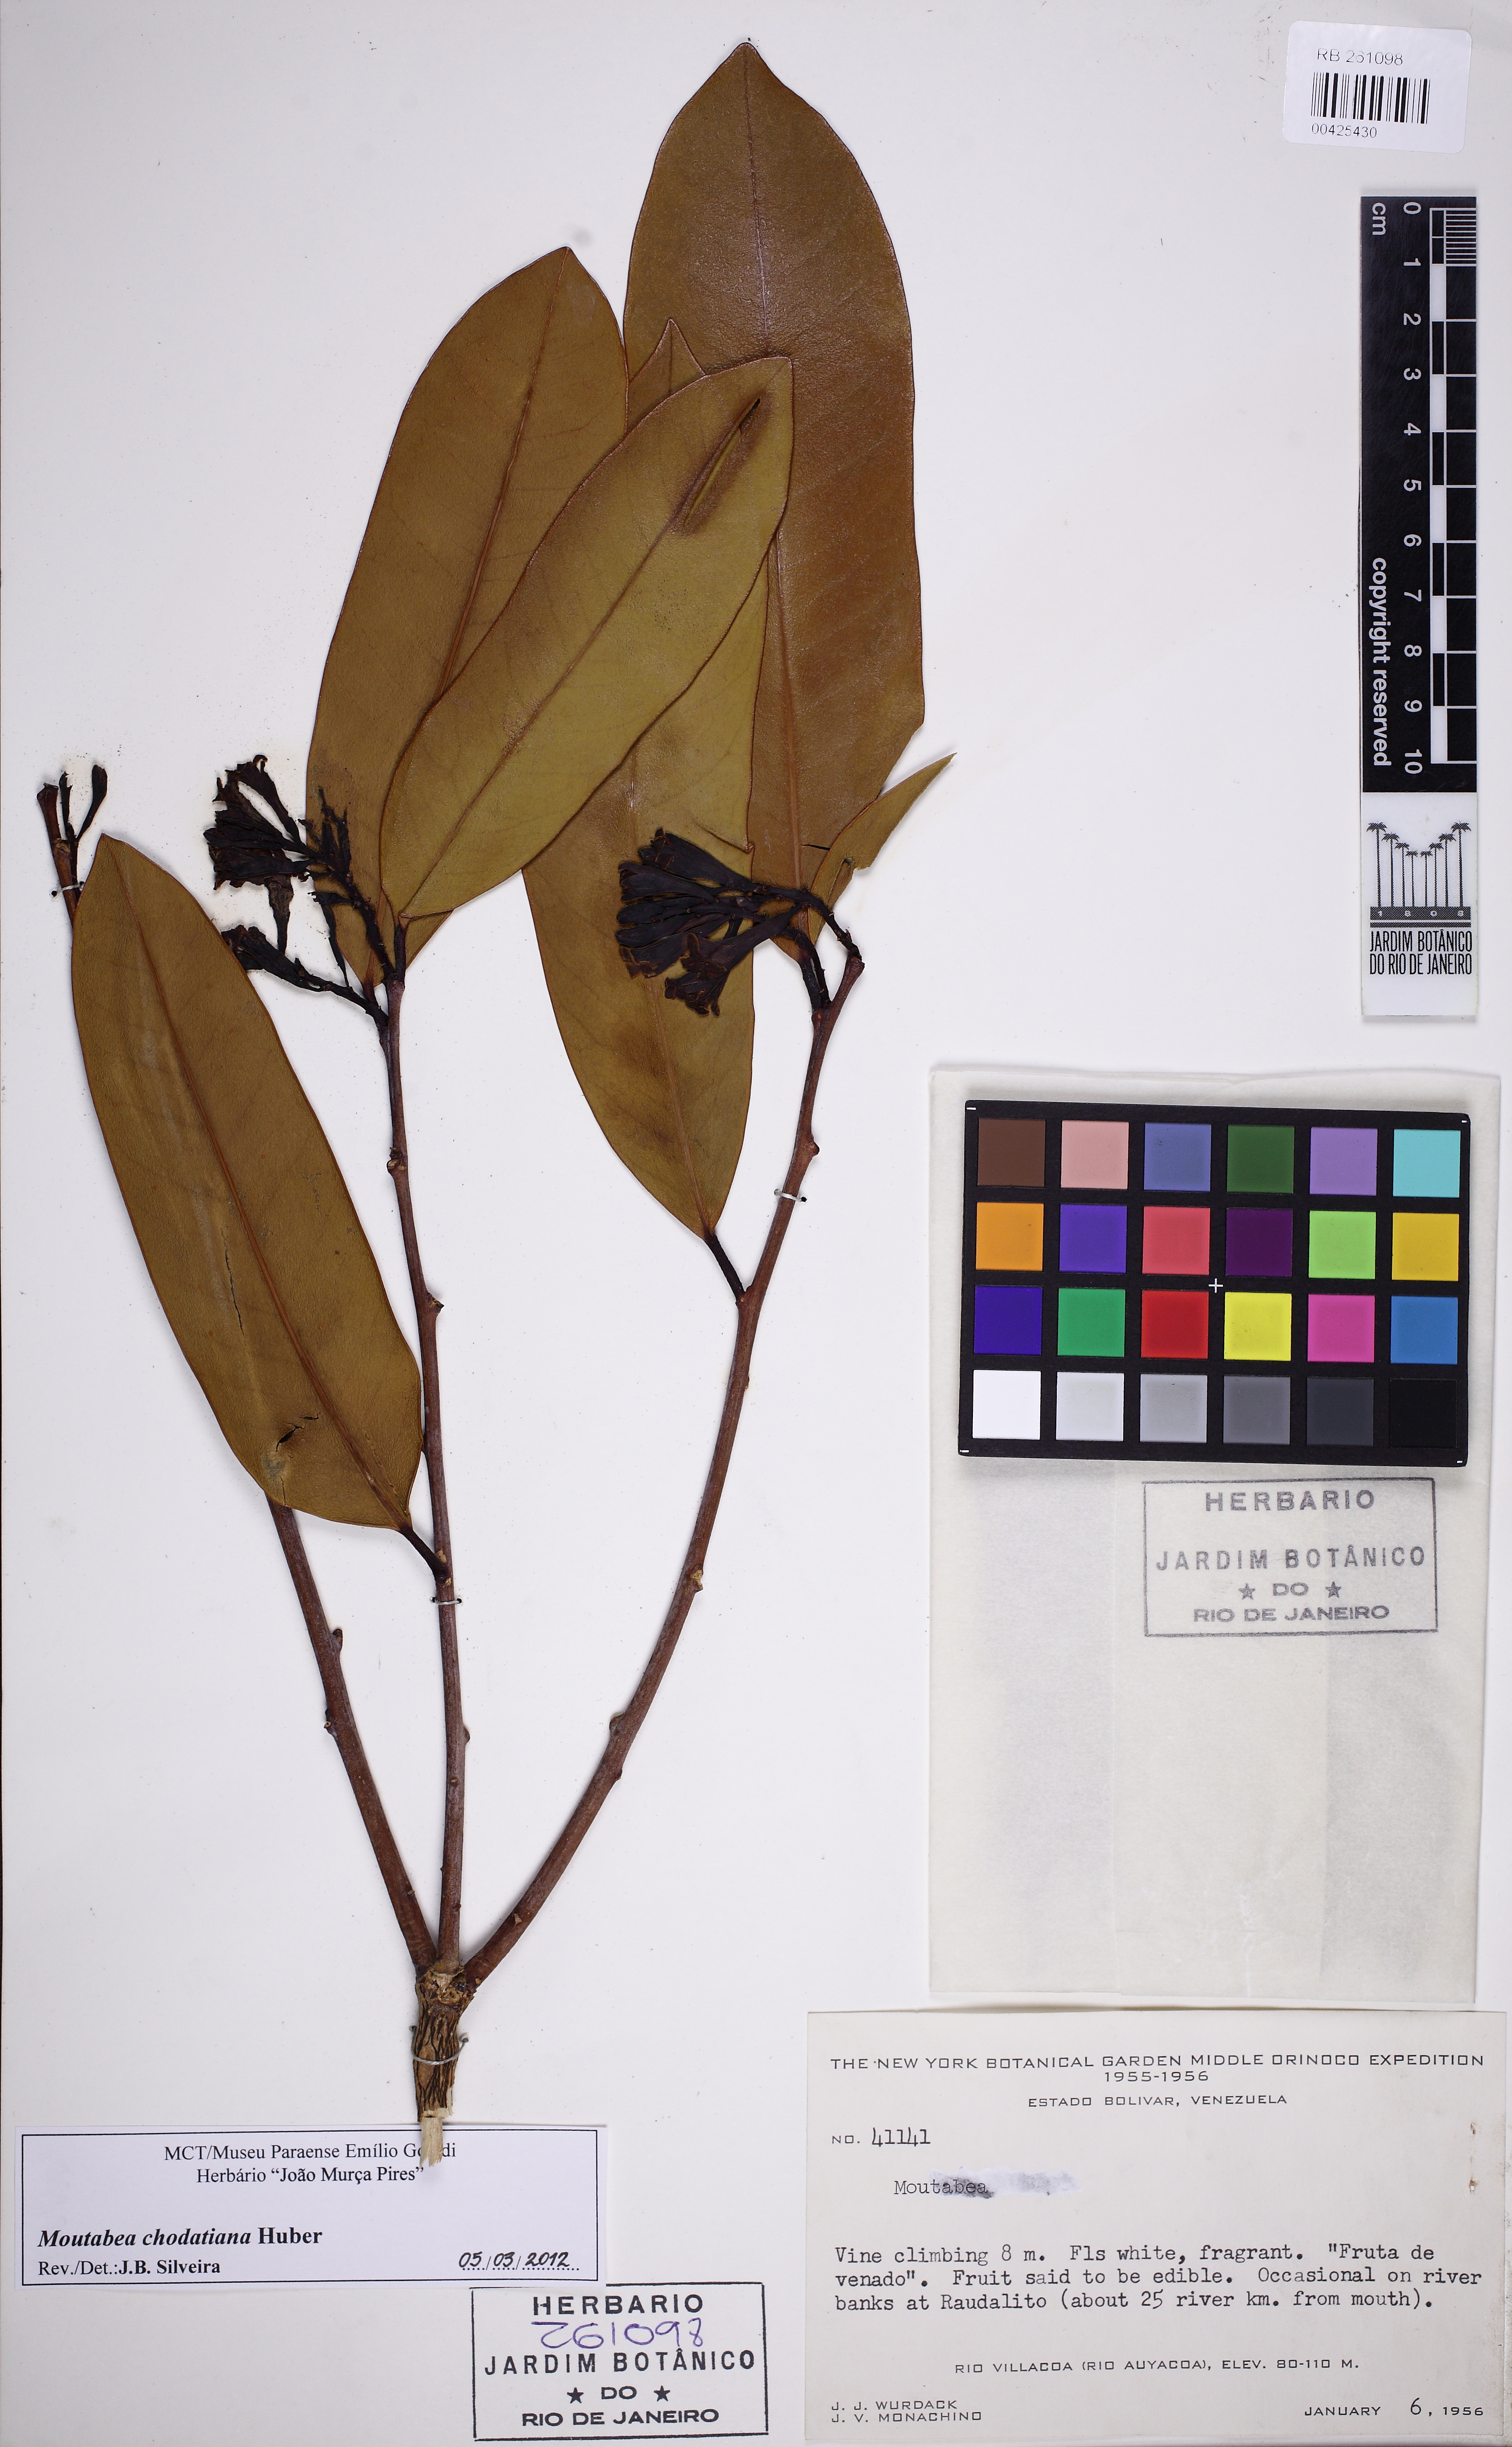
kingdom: Plantae
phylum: Tracheophyta
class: Magnoliopsida
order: Fabales
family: Polygalaceae
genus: Moutabea
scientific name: Moutabea chodatiana
